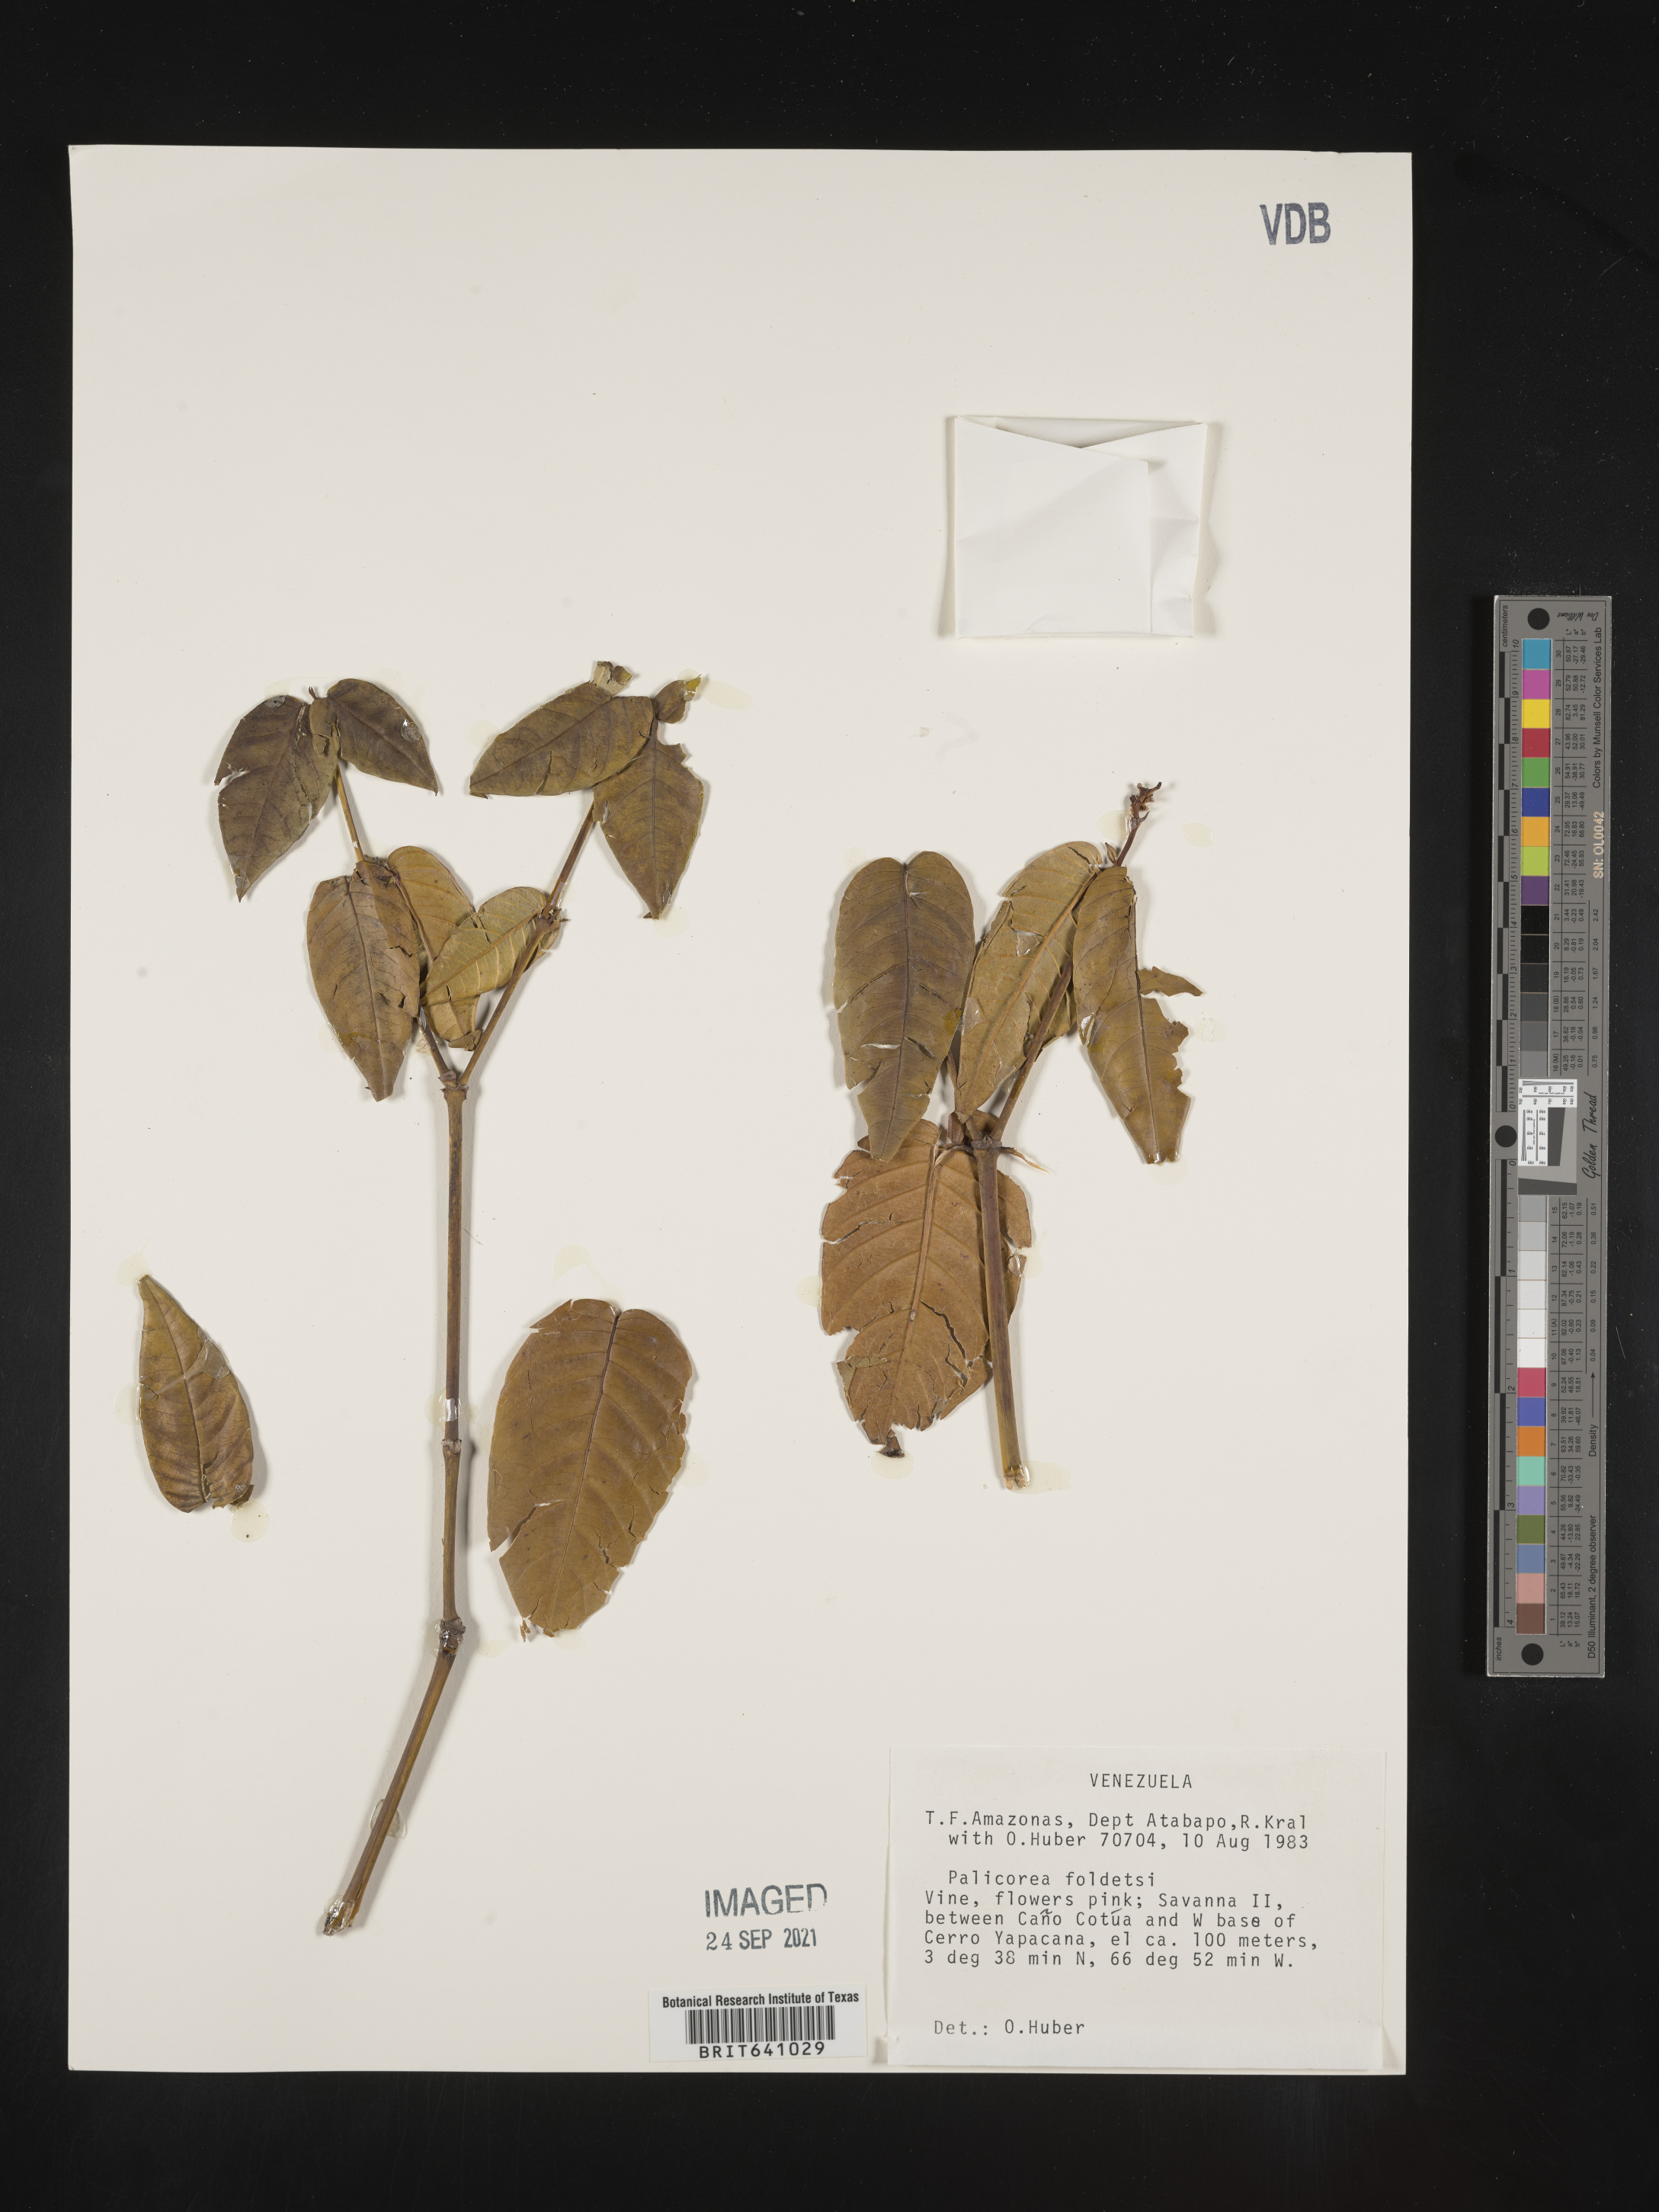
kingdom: Plantae
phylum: Tracheophyta
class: Magnoliopsida
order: Gentianales
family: Rubiaceae
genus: Palicourea
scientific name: Palicourea
